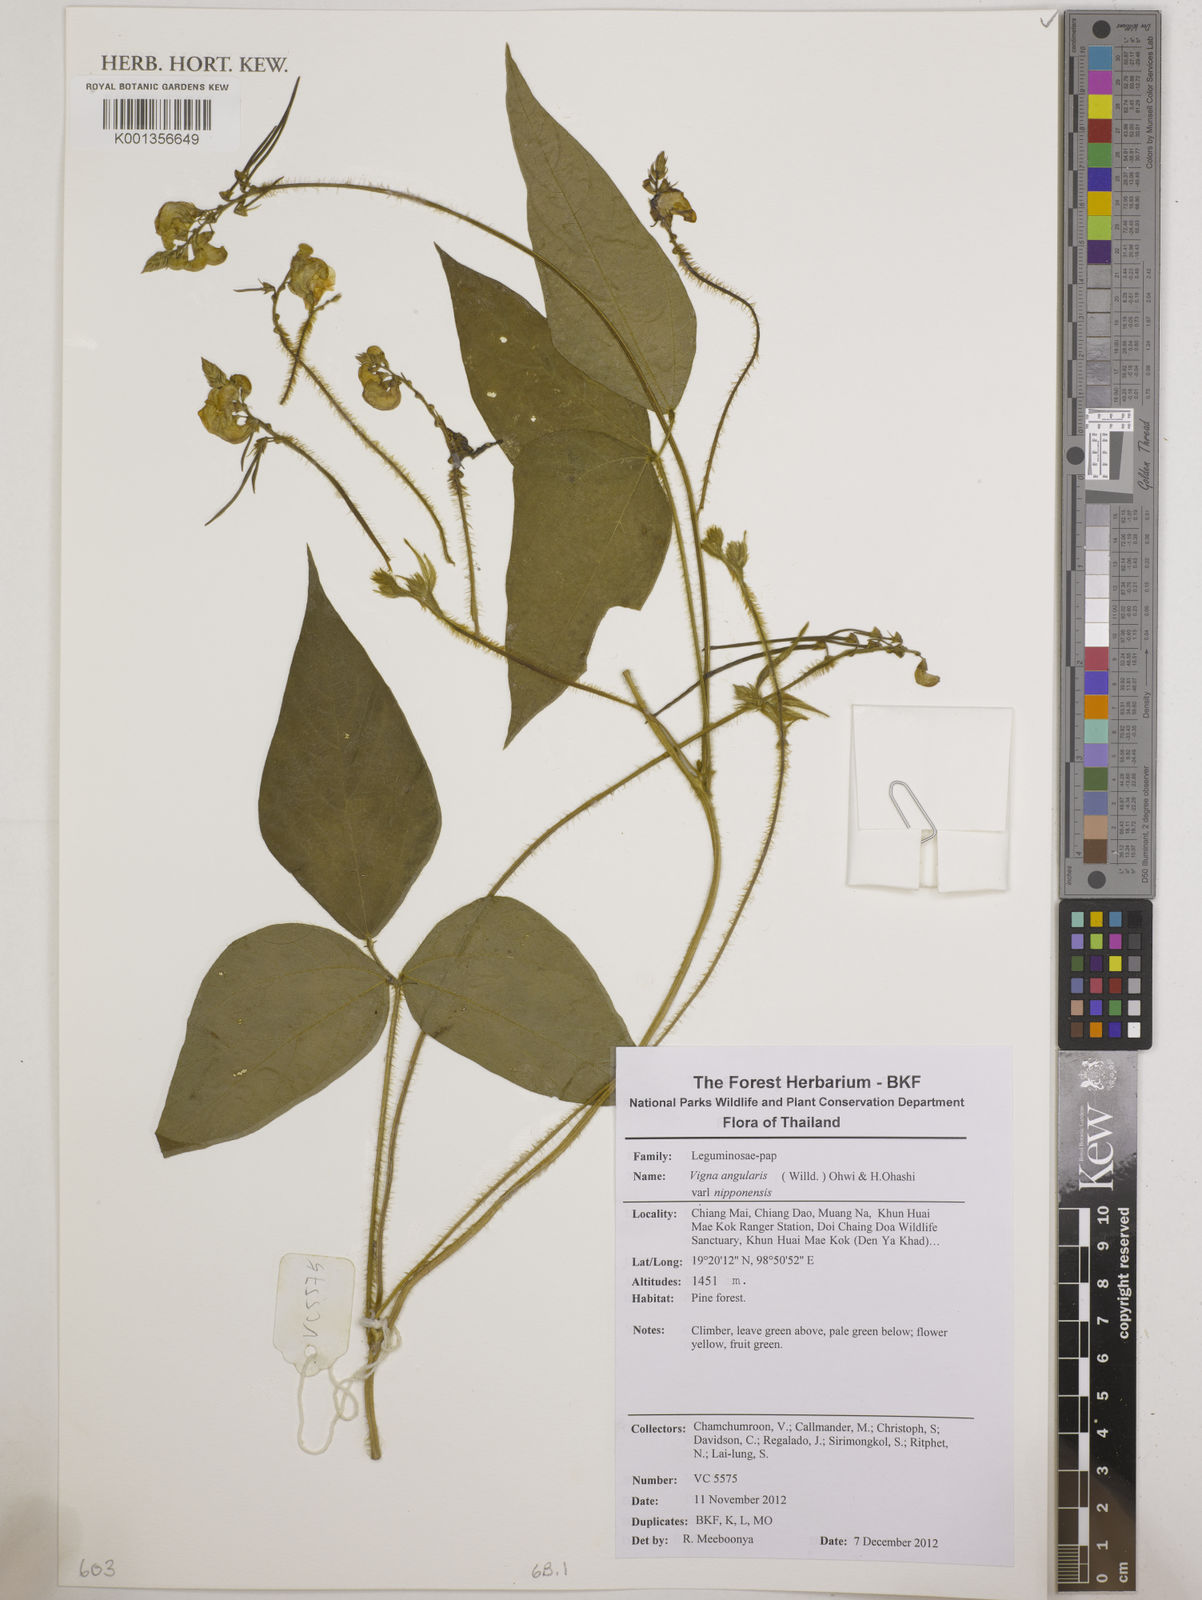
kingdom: Plantae
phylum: Tracheophyta
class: Magnoliopsida
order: Fabales
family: Fabaceae
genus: Vigna
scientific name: Vigna
